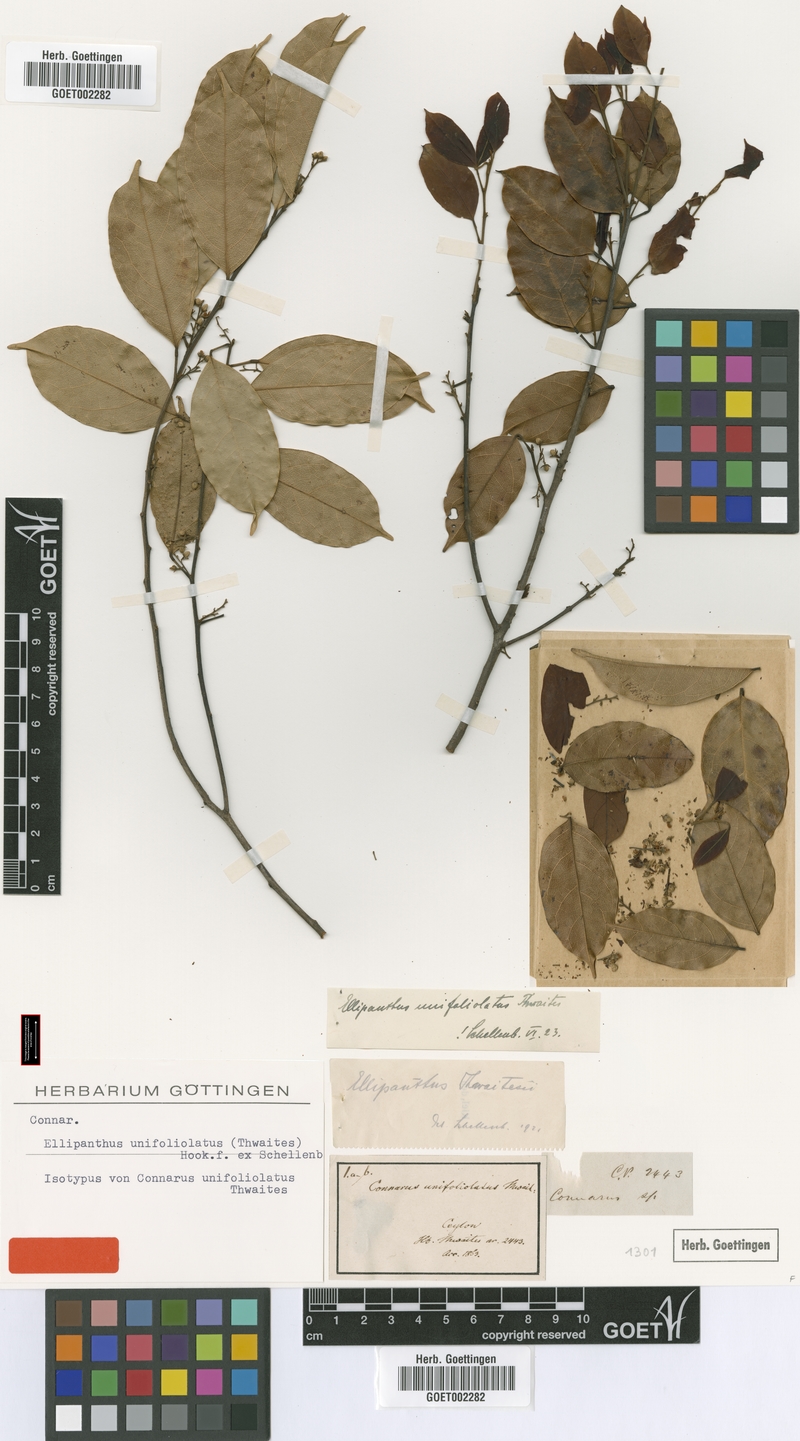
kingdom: Plantae
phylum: Tracheophyta
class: Magnoliopsida
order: Oxalidales
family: Connaraceae
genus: Ellipanthus
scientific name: Ellipanthus unifoliolatus
